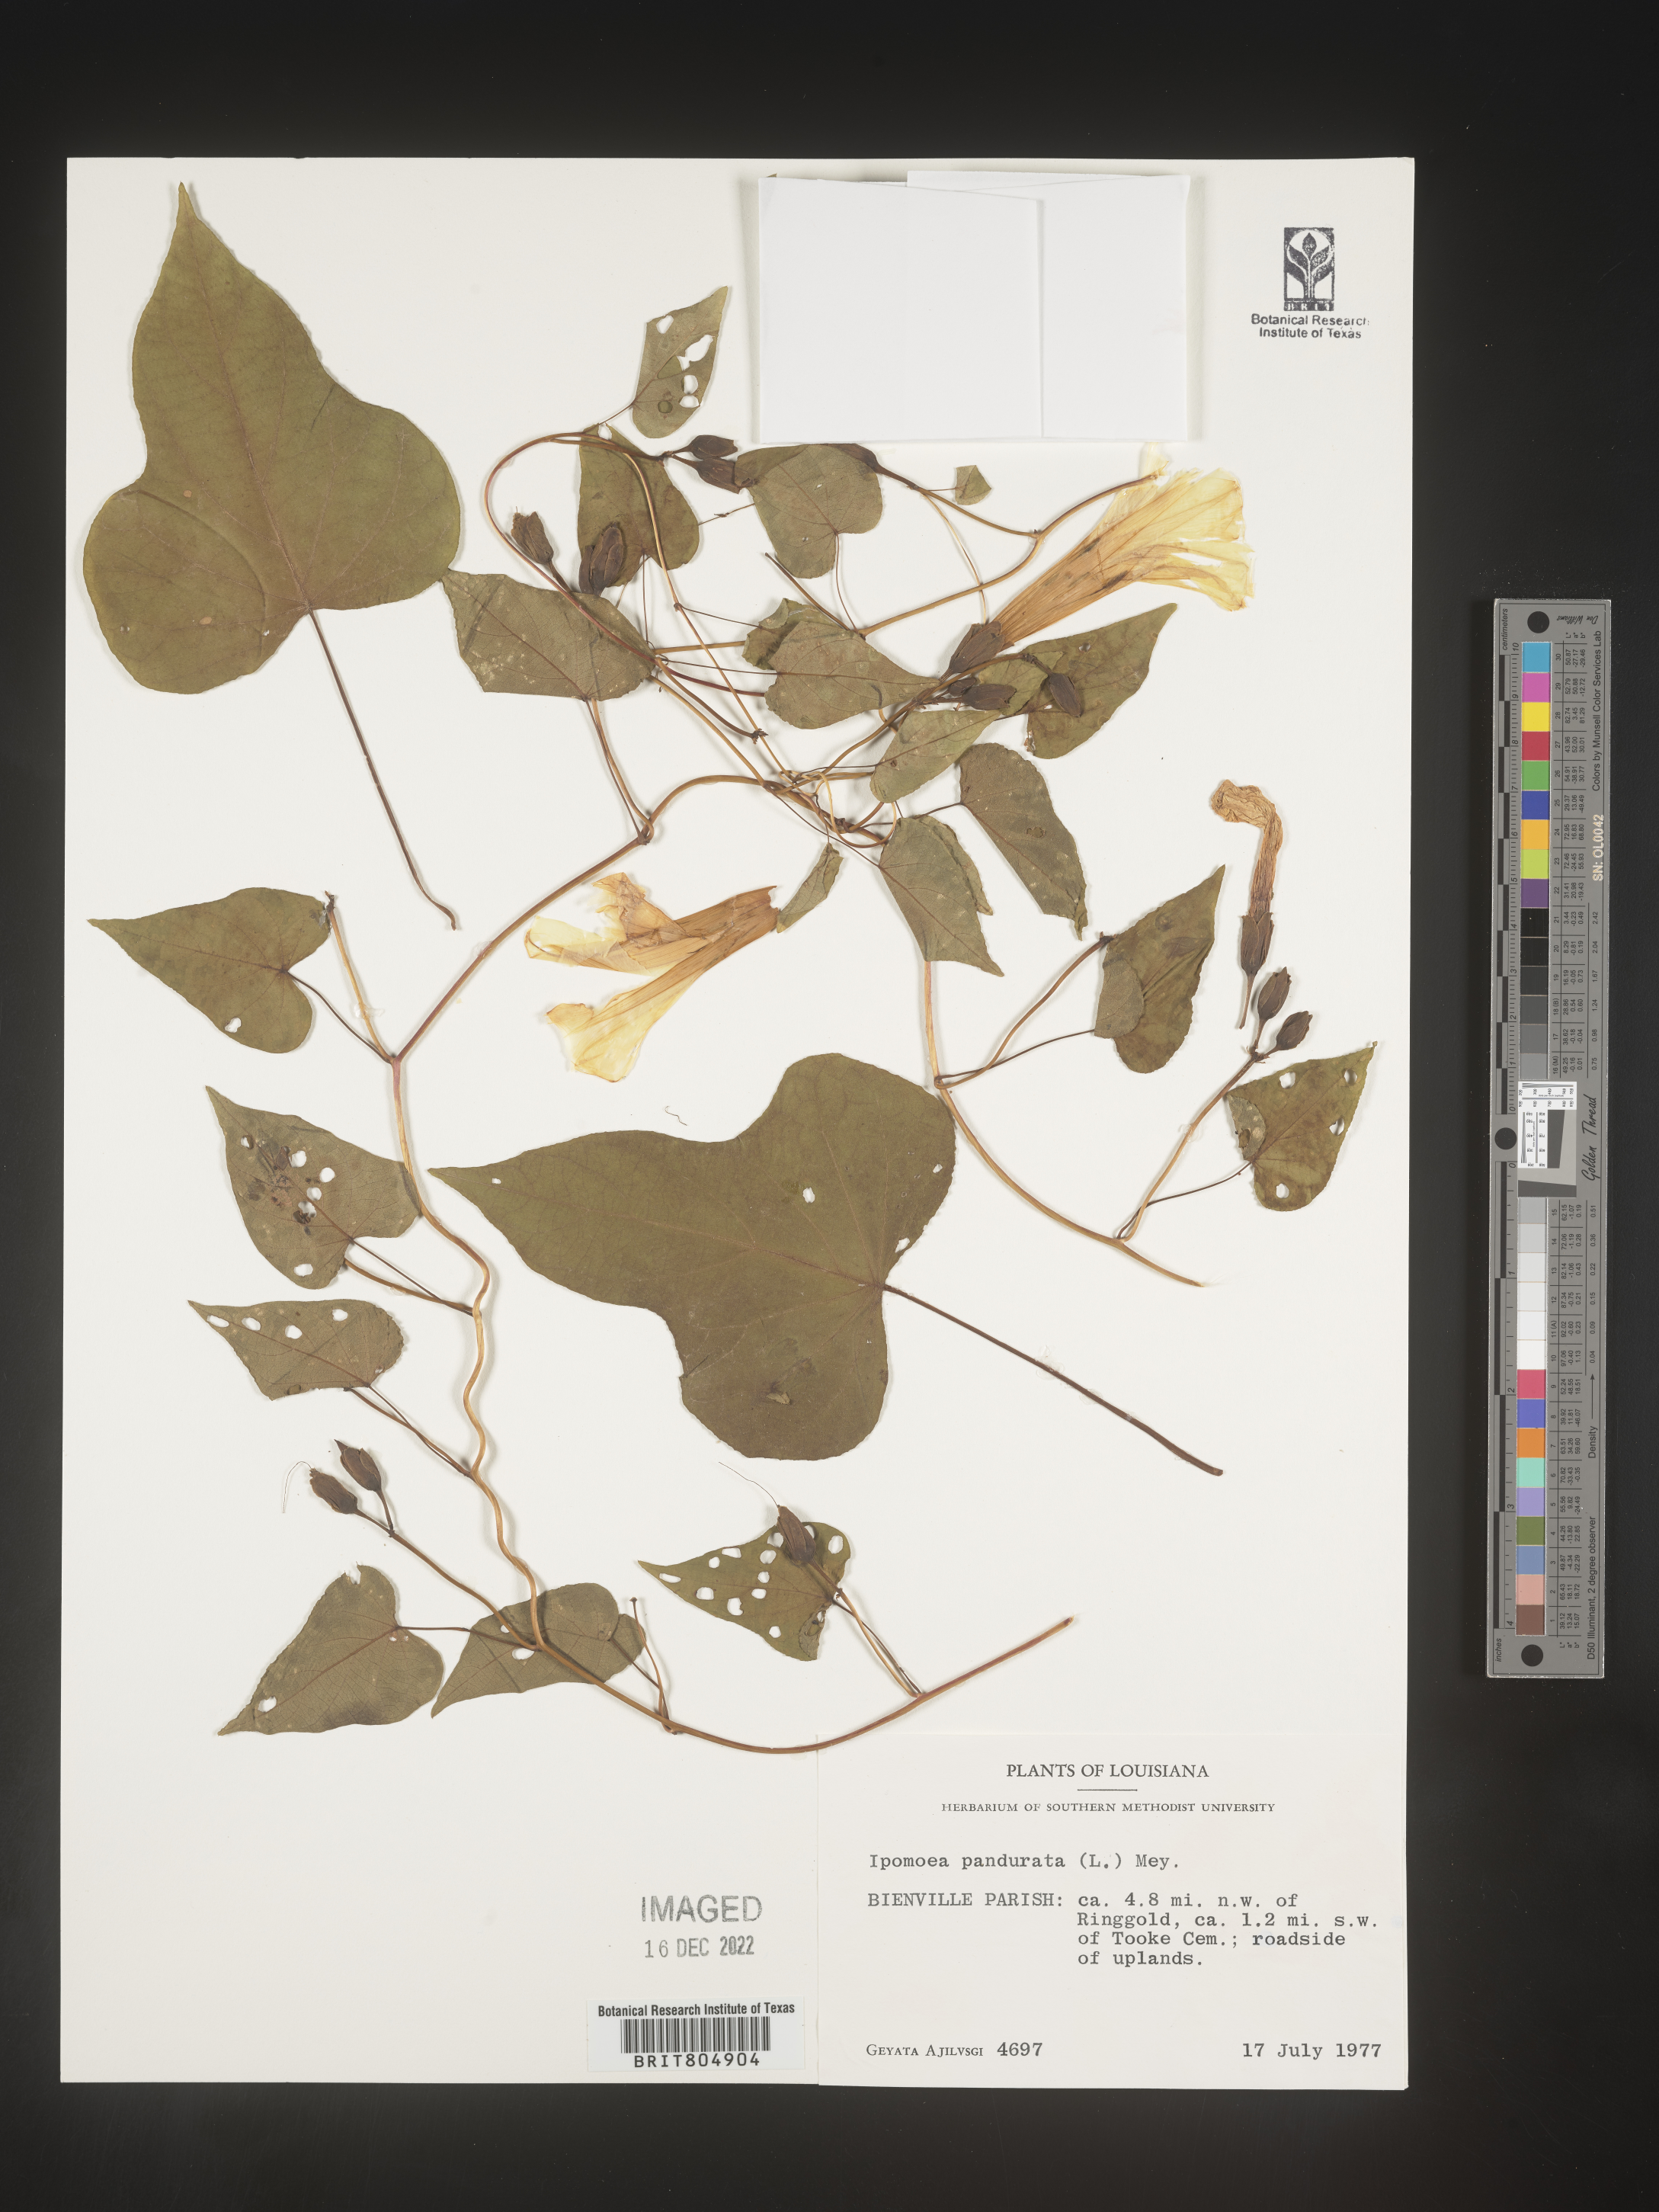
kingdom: Plantae
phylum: Tracheophyta
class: Magnoliopsida
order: Solanales
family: Convolvulaceae
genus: Ipomoea
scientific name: Ipomoea pandurata
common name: Man-of-the-earth
